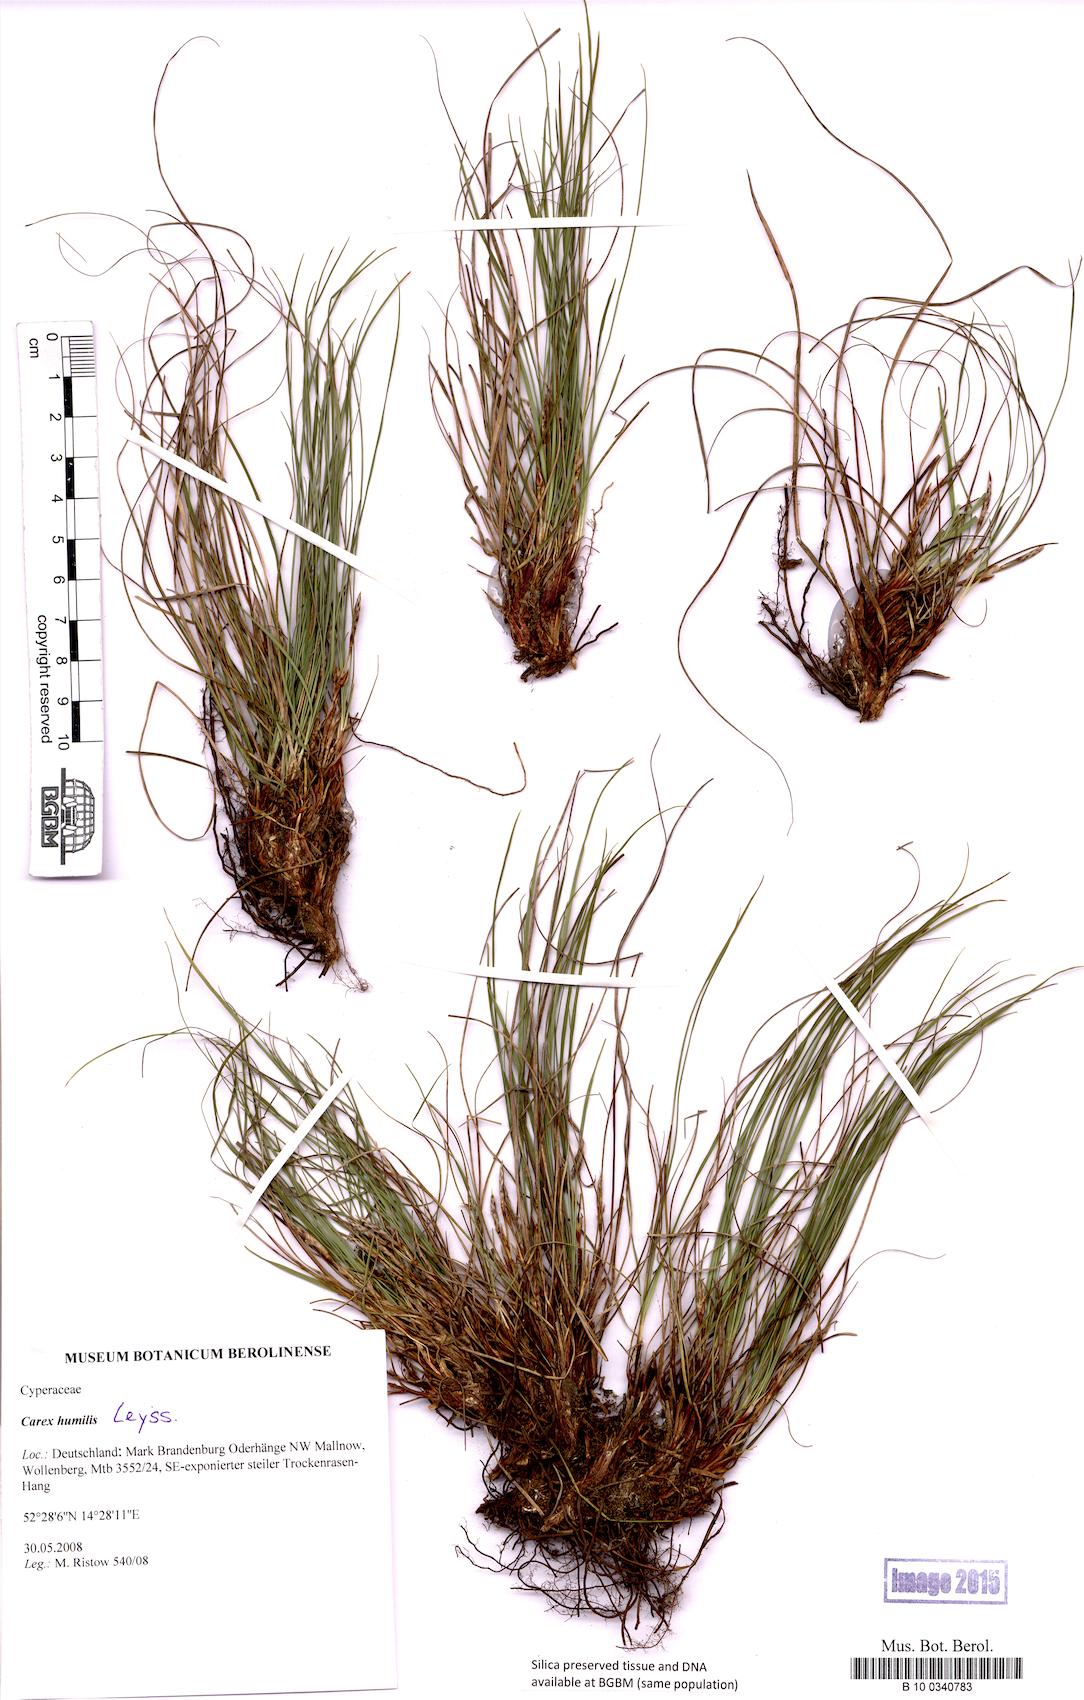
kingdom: Plantae
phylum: Tracheophyta
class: Liliopsida
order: Poales
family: Cyperaceae
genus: Carex
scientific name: Carex humilis
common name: Dwarf sedge
